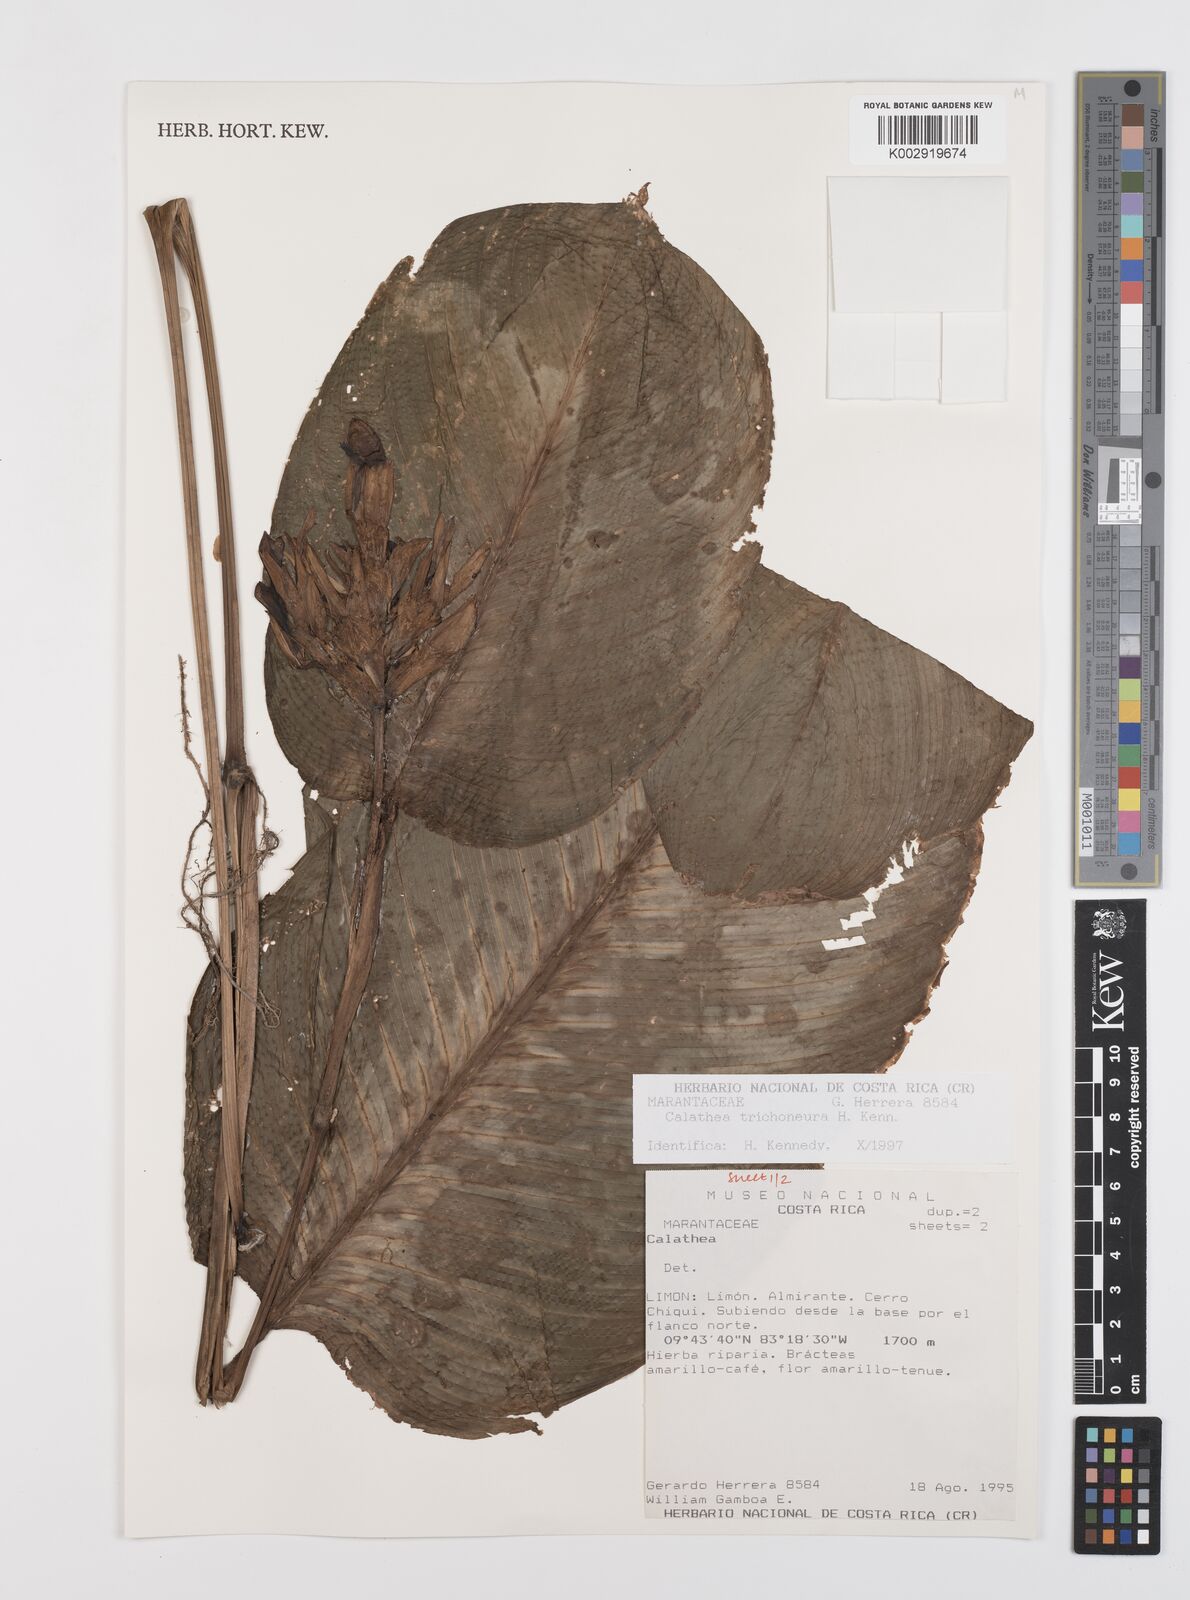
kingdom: Plantae
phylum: Tracheophyta
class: Liliopsida
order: Zingiberales
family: Marantaceae
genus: Goeppertia
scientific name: Goeppertia trichoneura
